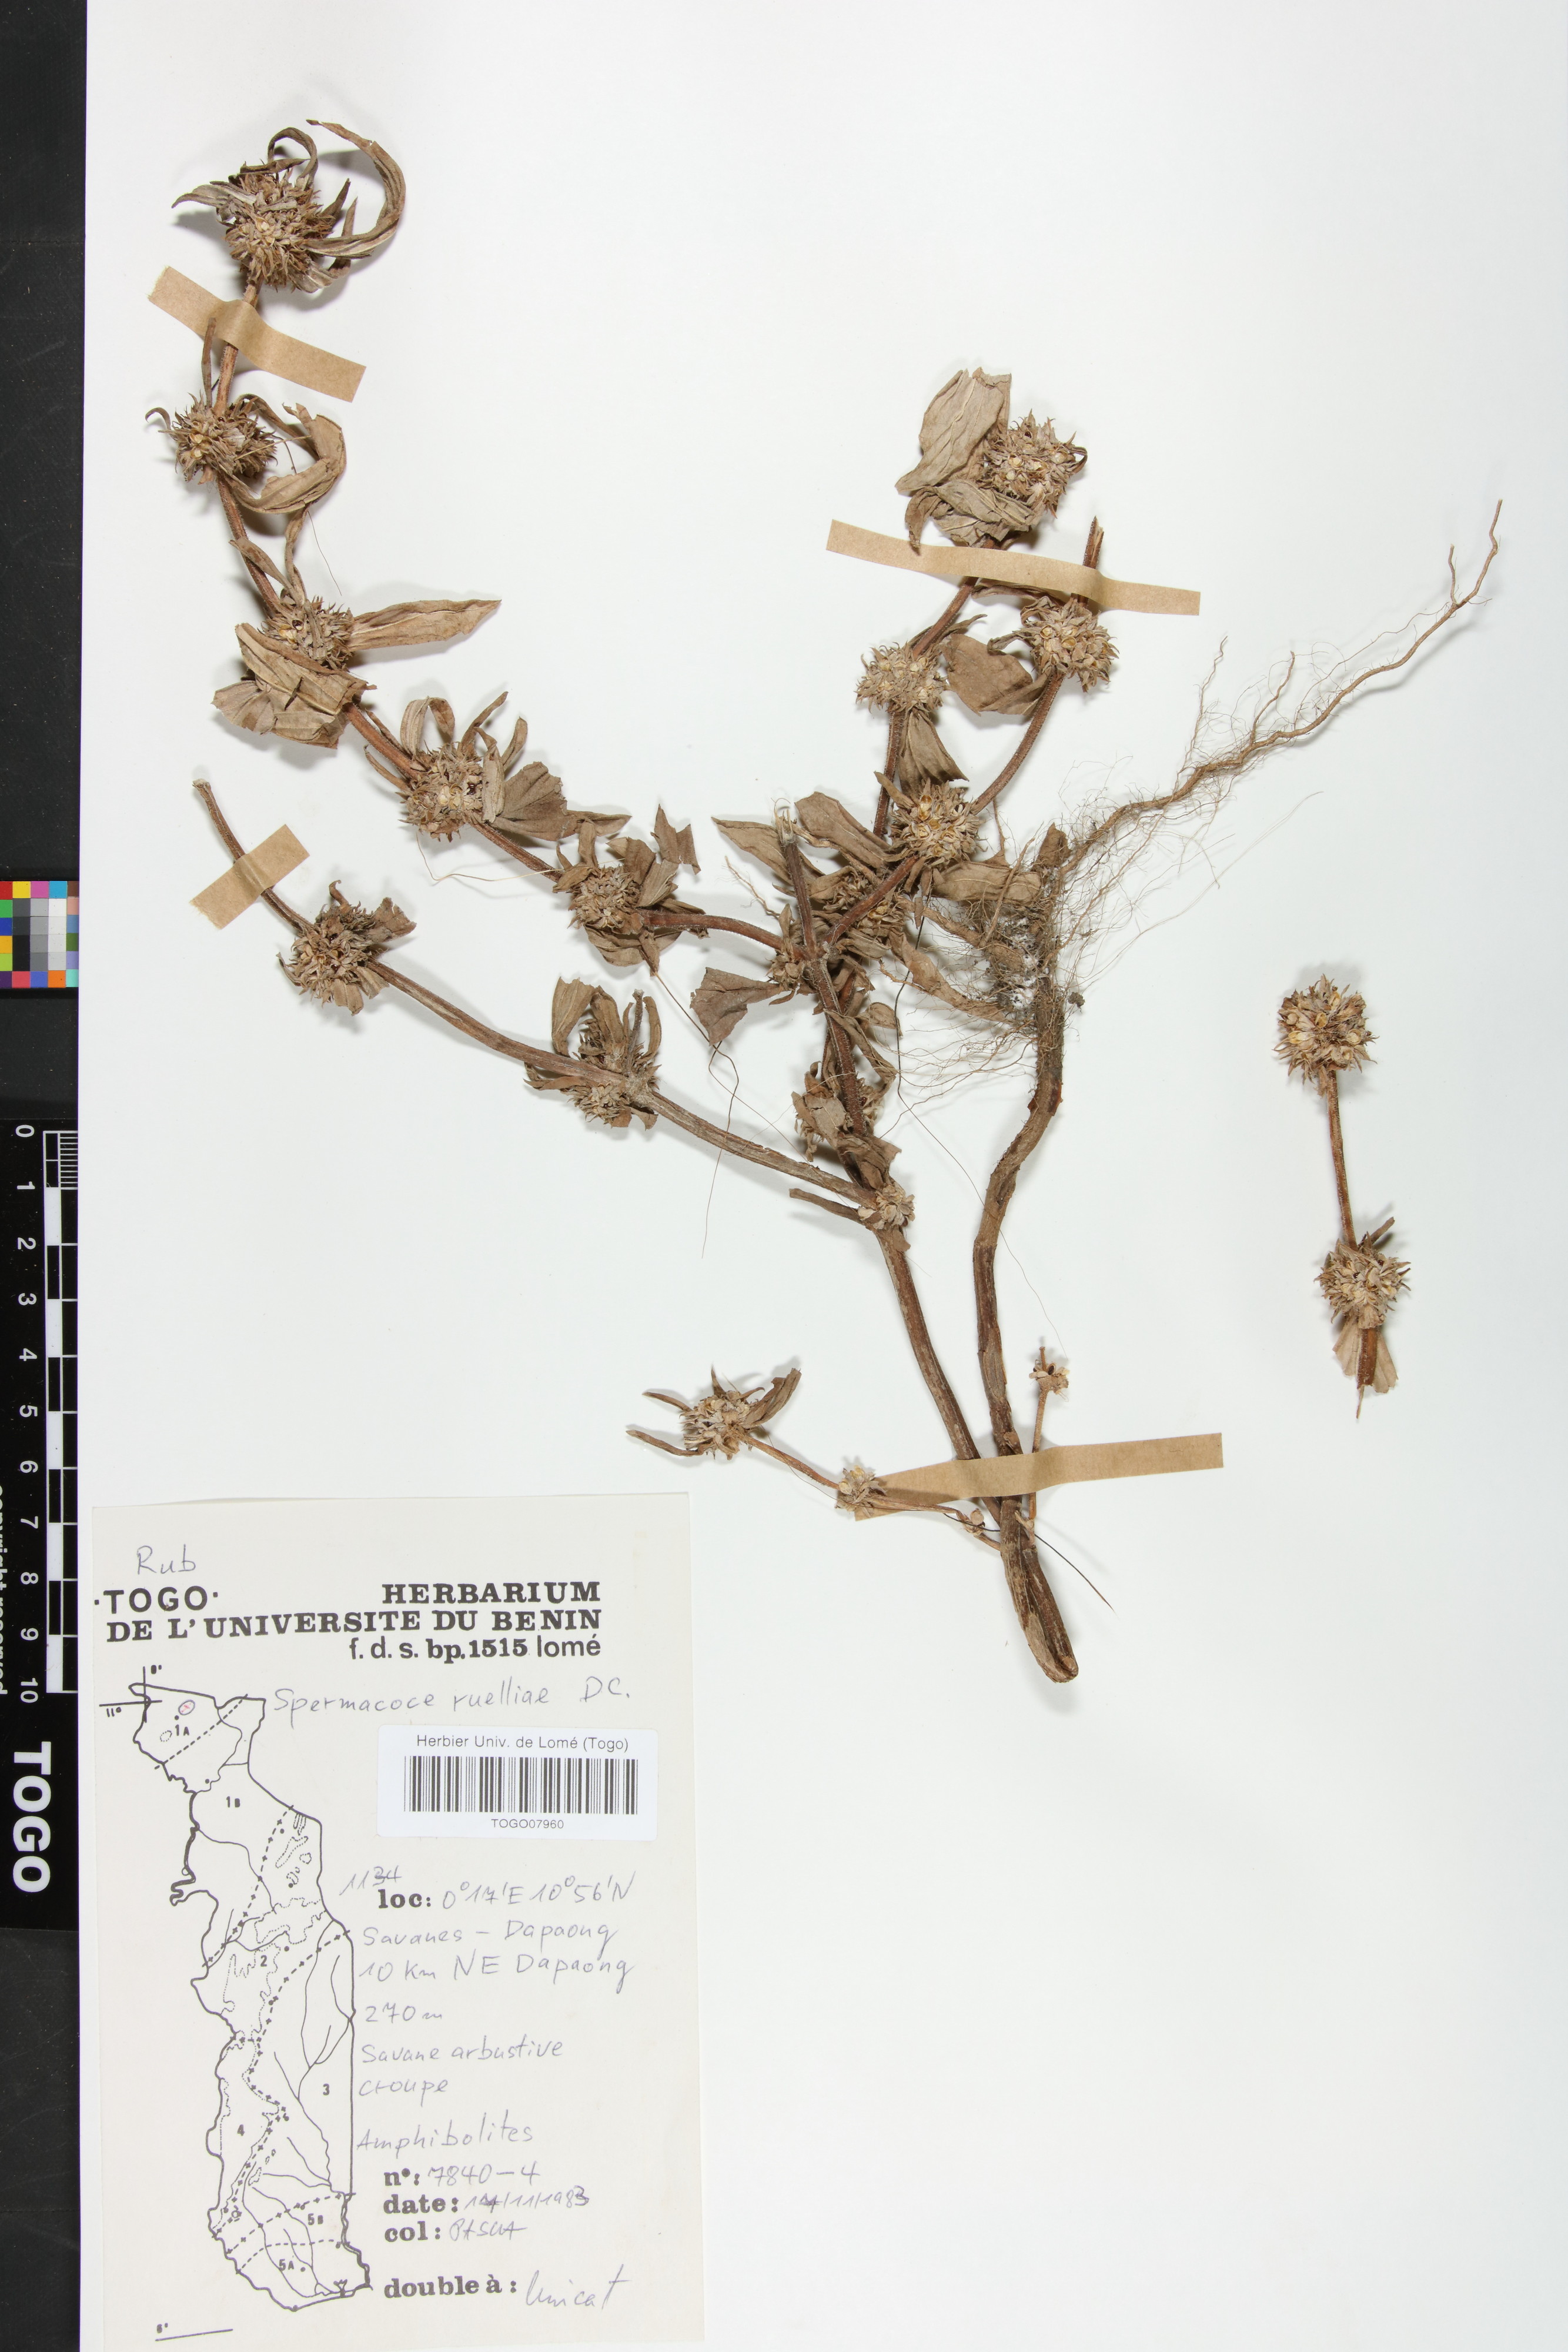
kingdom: Plantae
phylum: Tracheophyta
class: Magnoliopsida
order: Gentianales
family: Rubiaceae
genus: Spermacoce
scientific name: Spermacoce ruelliae
